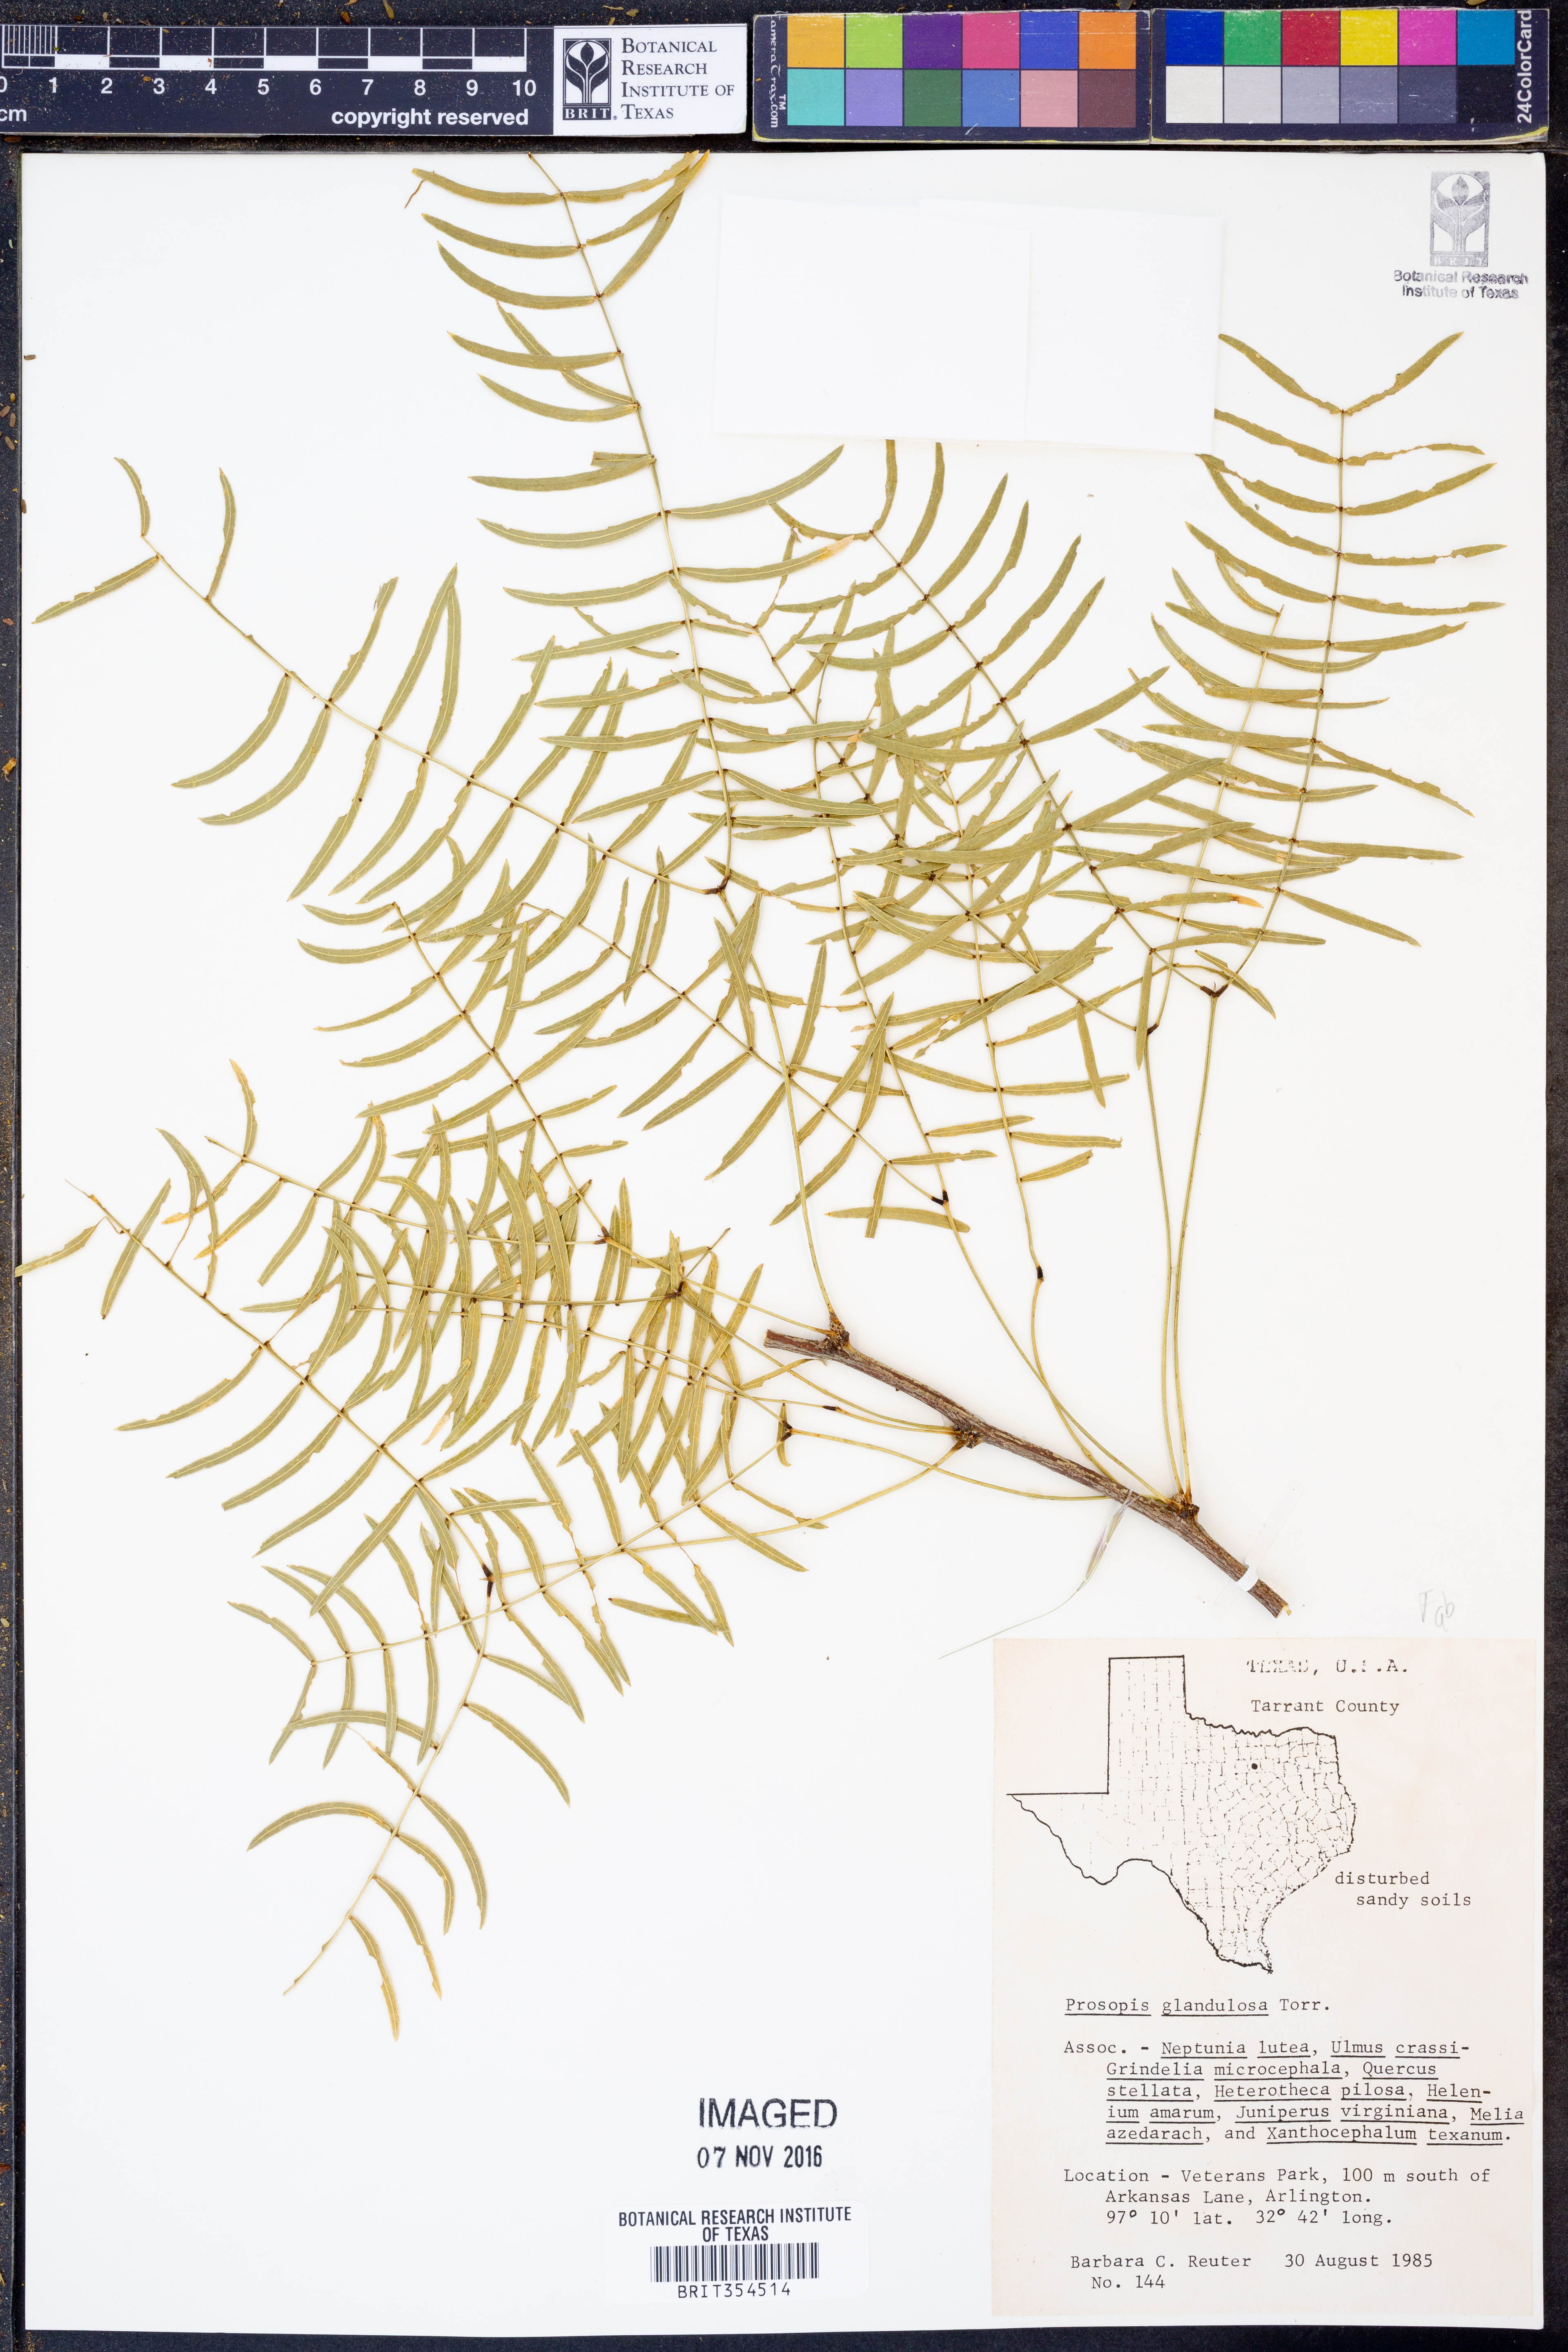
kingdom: Plantae
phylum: Tracheophyta
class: Magnoliopsida
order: Fabales
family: Fabaceae
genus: Prosopis
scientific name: Prosopis glandulosa
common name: Honey mesquite
